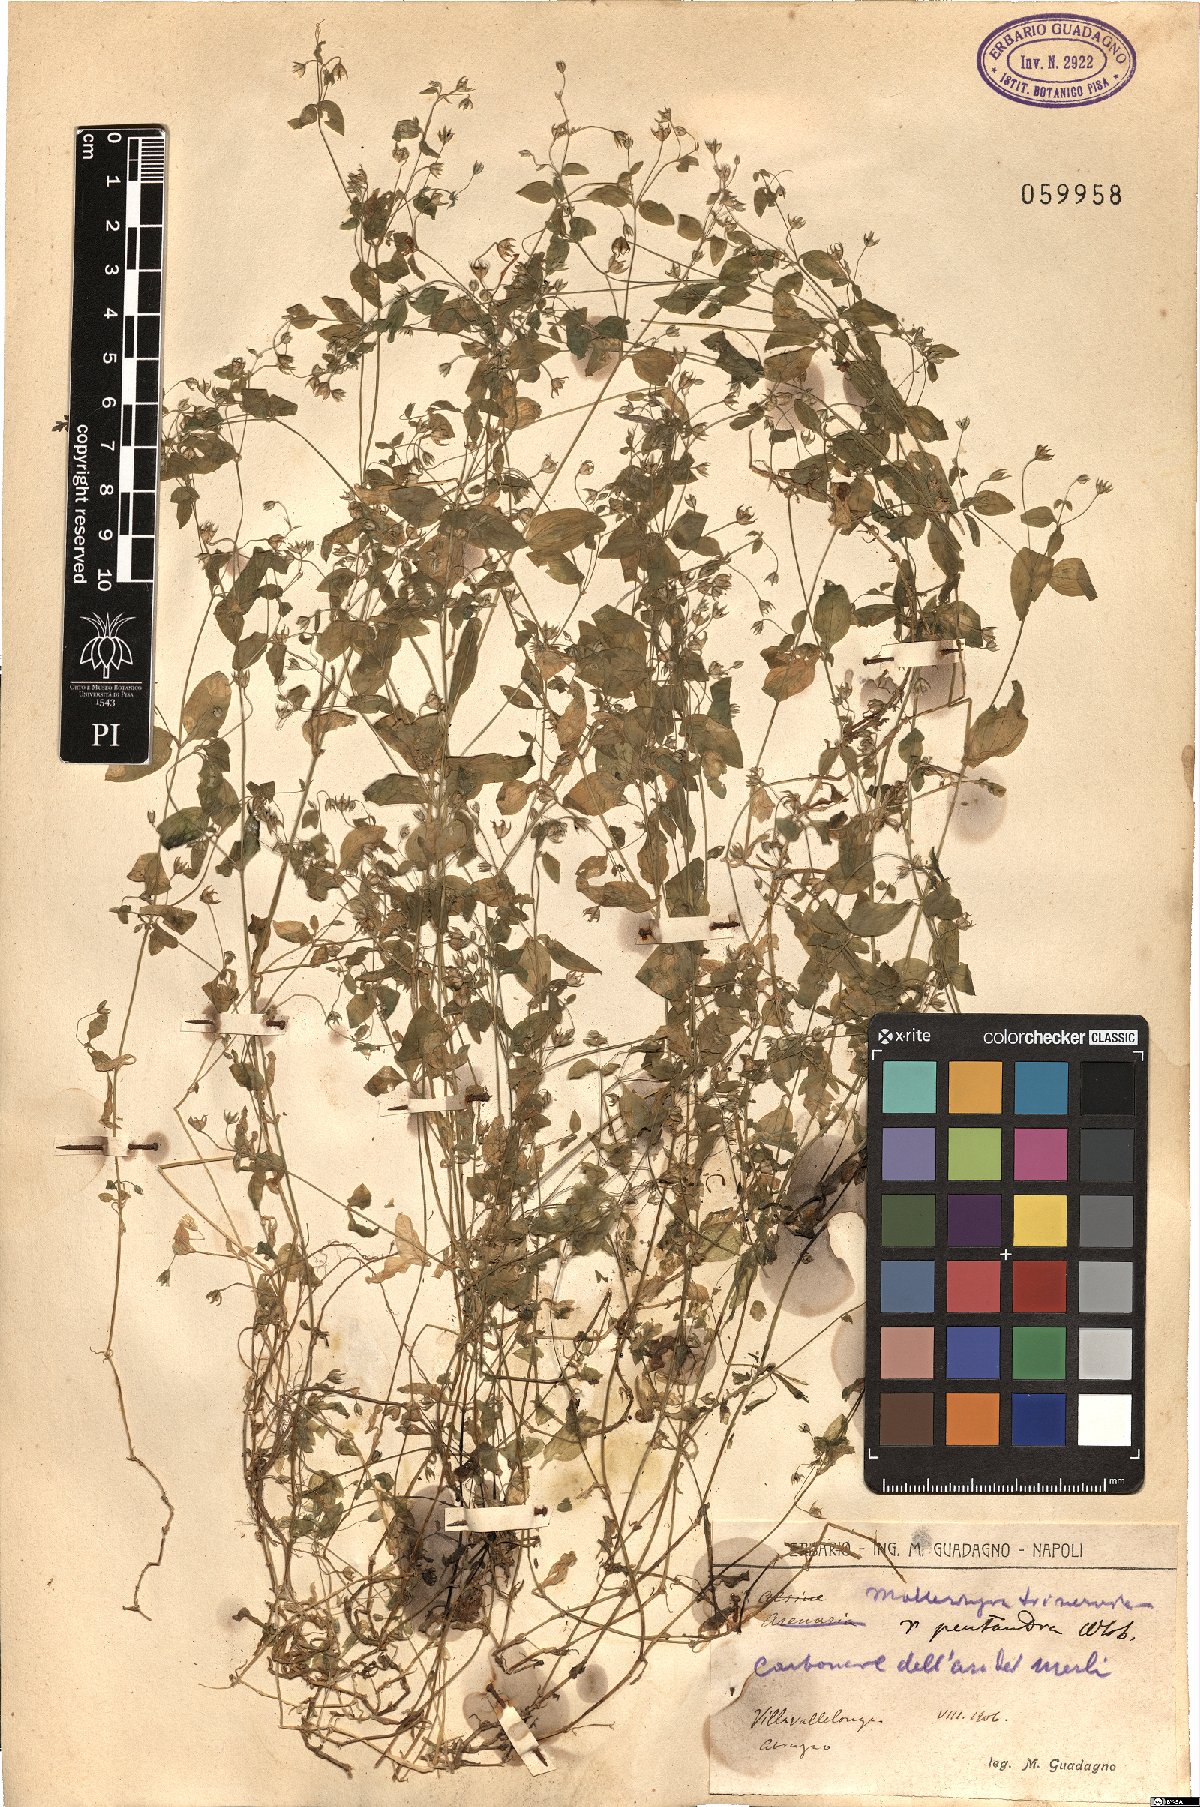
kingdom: Plantae
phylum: Tracheophyta
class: Magnoliopsida
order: Caryophyllales
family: Caryophyllaceae
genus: Moehringia
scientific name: Moehringia trinervia
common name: Three-nerved sandwort
